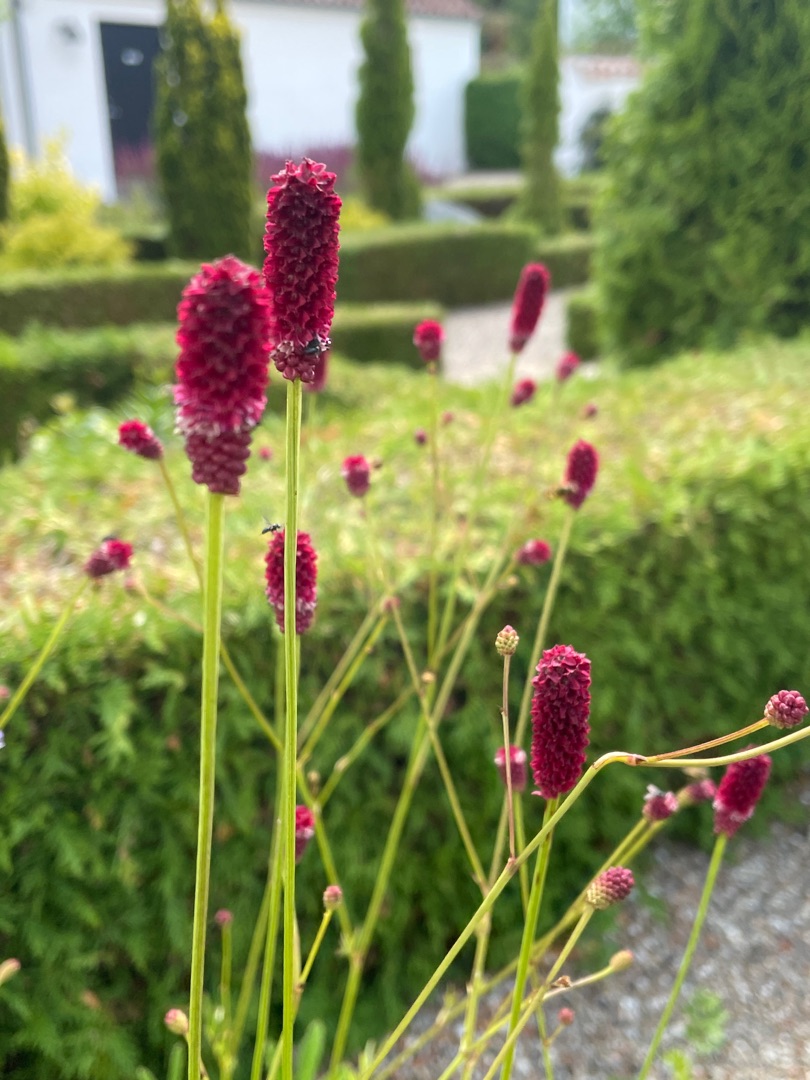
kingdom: Plantae
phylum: Tracheophyta
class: Magnoliopsida
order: Rosales
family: Rosaceae
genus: Sanguisorba
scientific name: Sanguisorba officinalis
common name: Læge-kvæsurt
